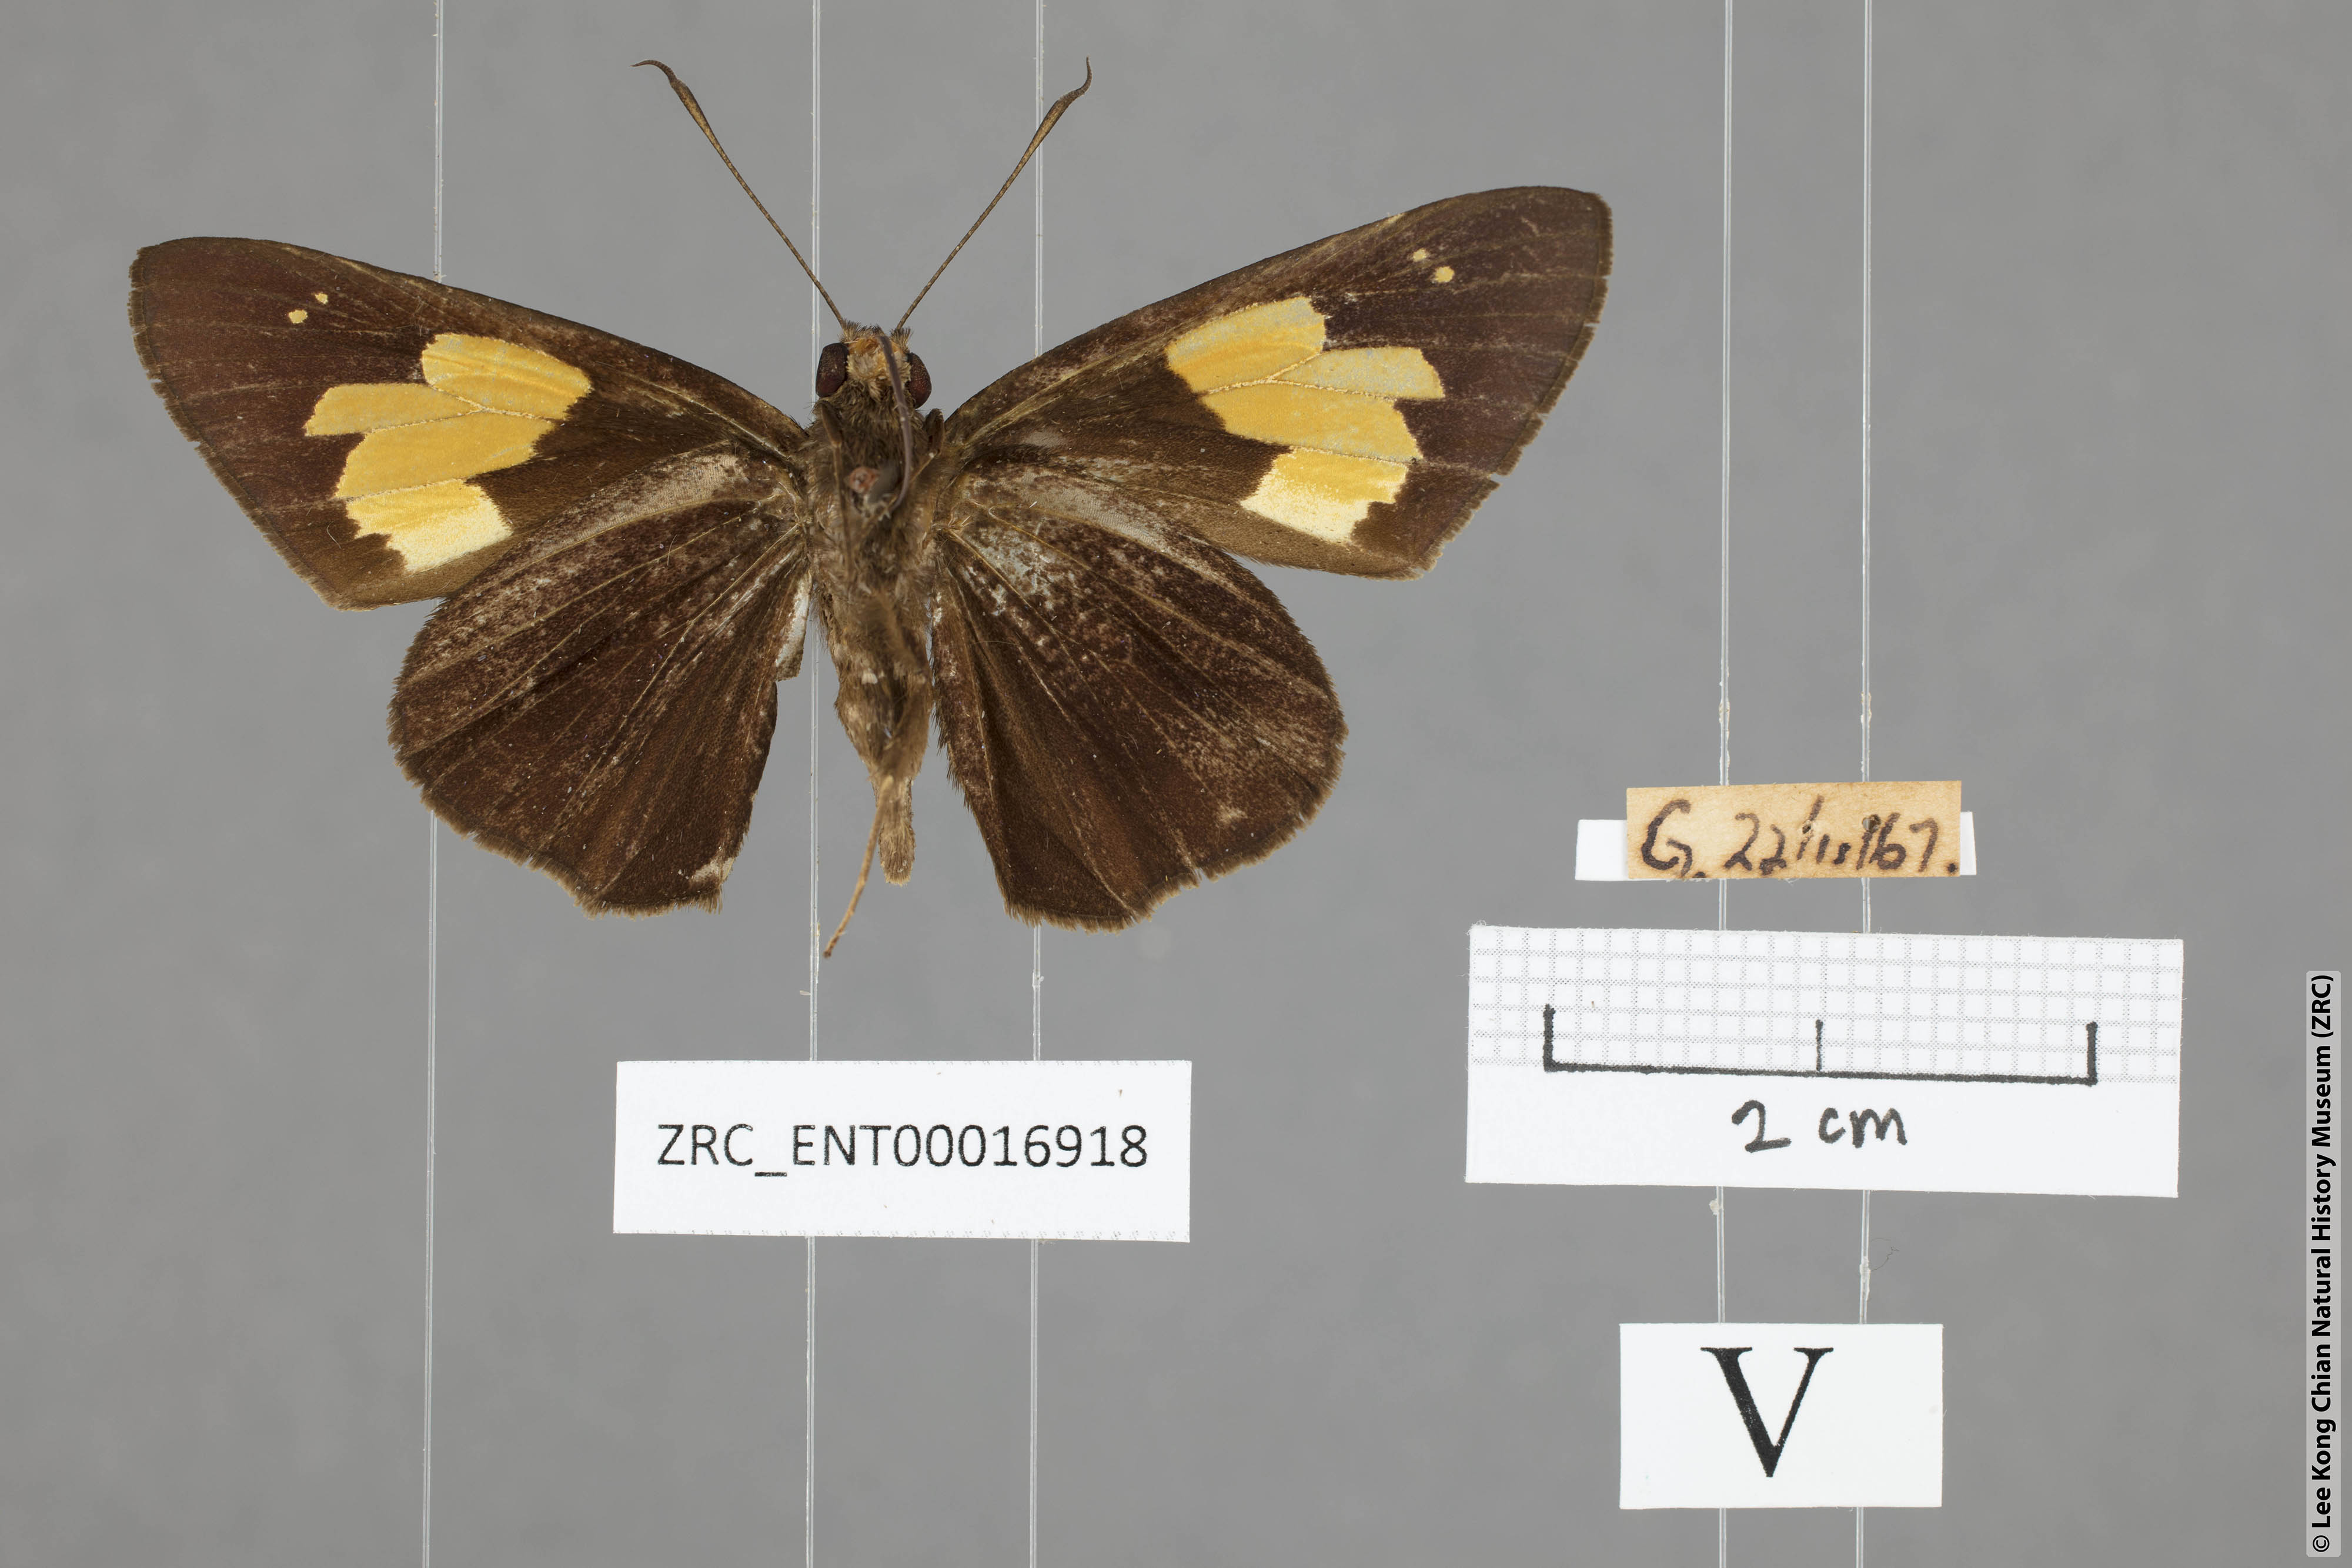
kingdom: Animalia
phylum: Arthropoda
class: Insecta
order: Lepidoptera
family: Hesperiidae
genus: Erionota
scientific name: Erionota
